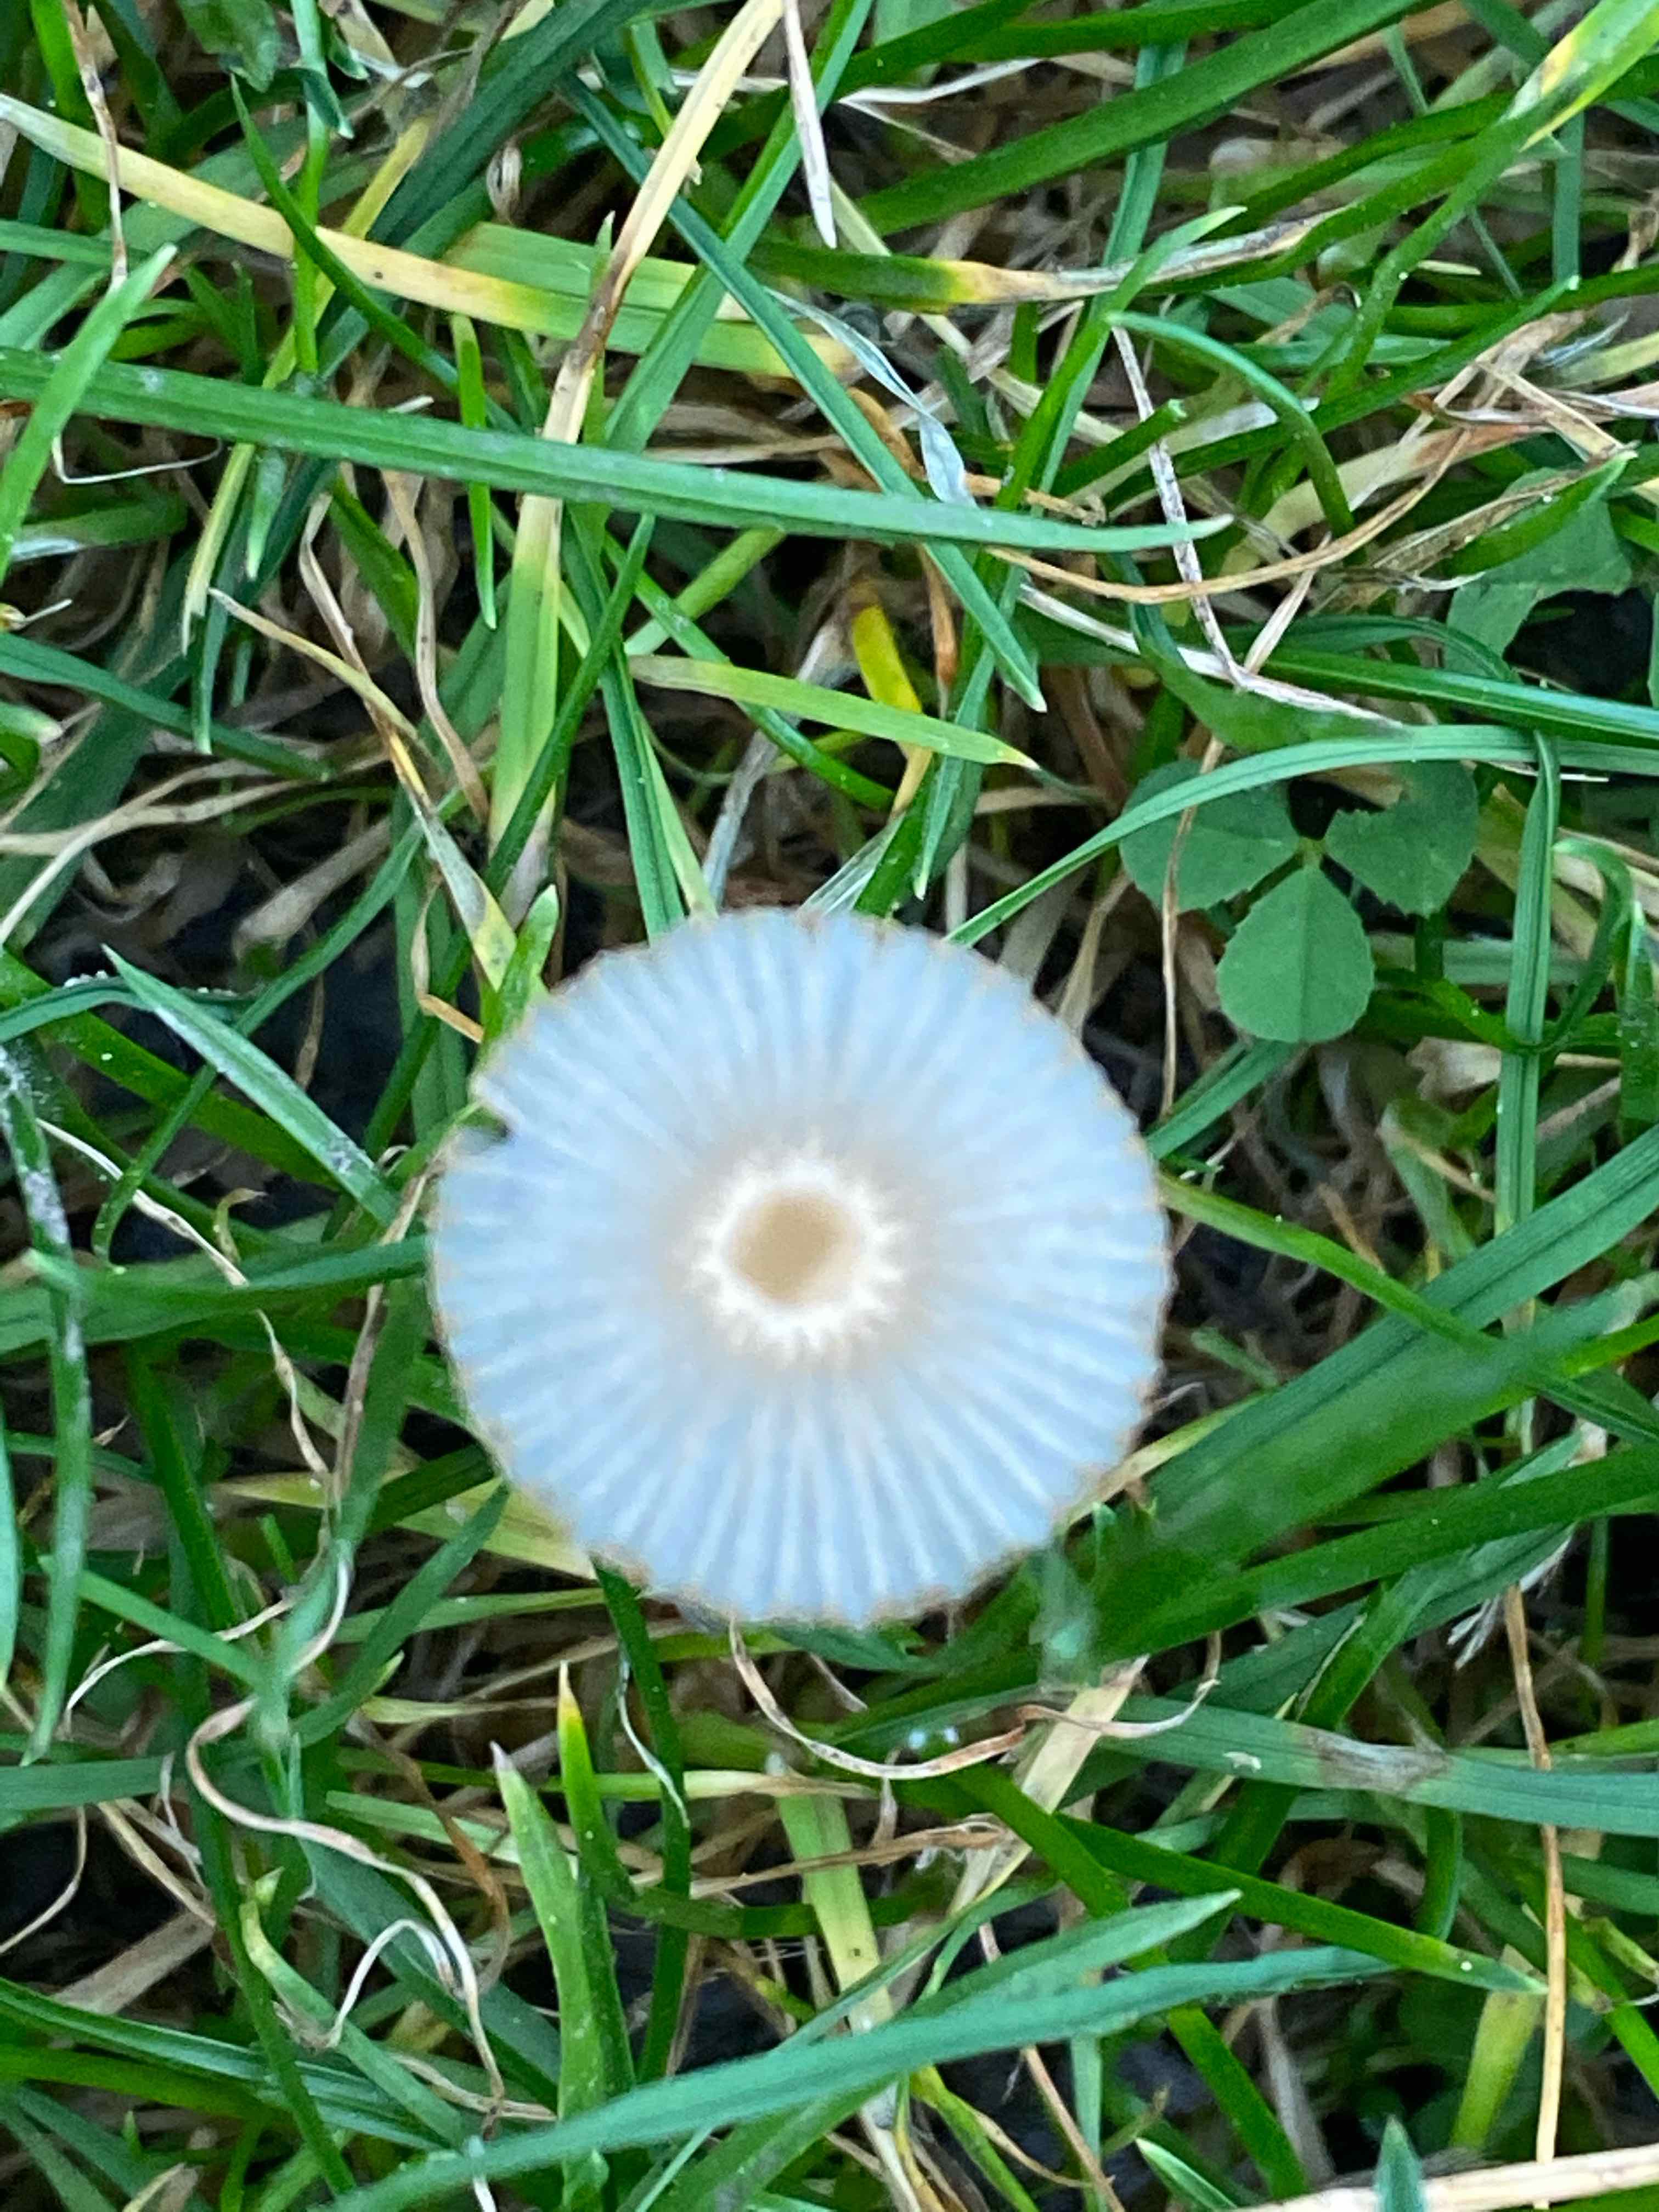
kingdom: Fungi
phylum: Basidiomycota
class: Agaricomycetes
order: Agaricales
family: Psathyrellaceae
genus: Parasola
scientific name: Parasola
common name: hjulhat
